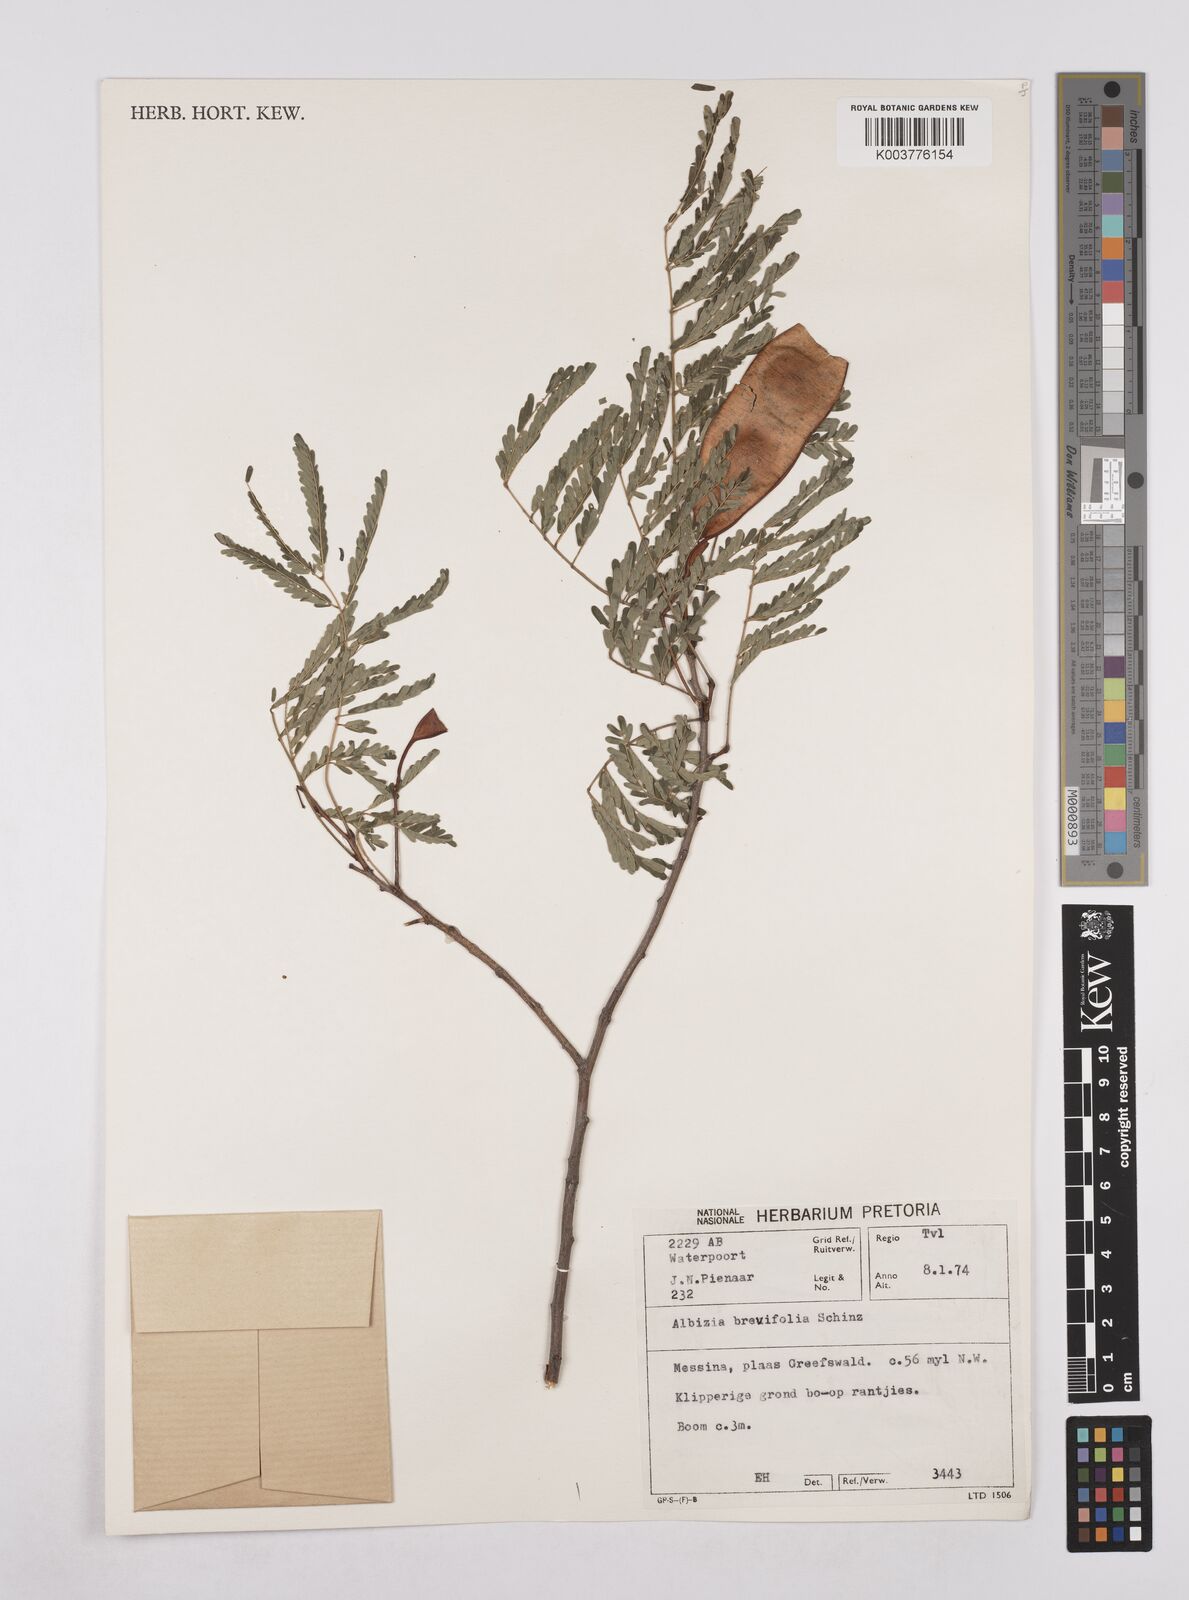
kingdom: Plantae
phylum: Tracheophyta
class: Magnoliopsida
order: Fabales
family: Fabaceae
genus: Albizia
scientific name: Albizia brevifolia
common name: Rock false-thorn
